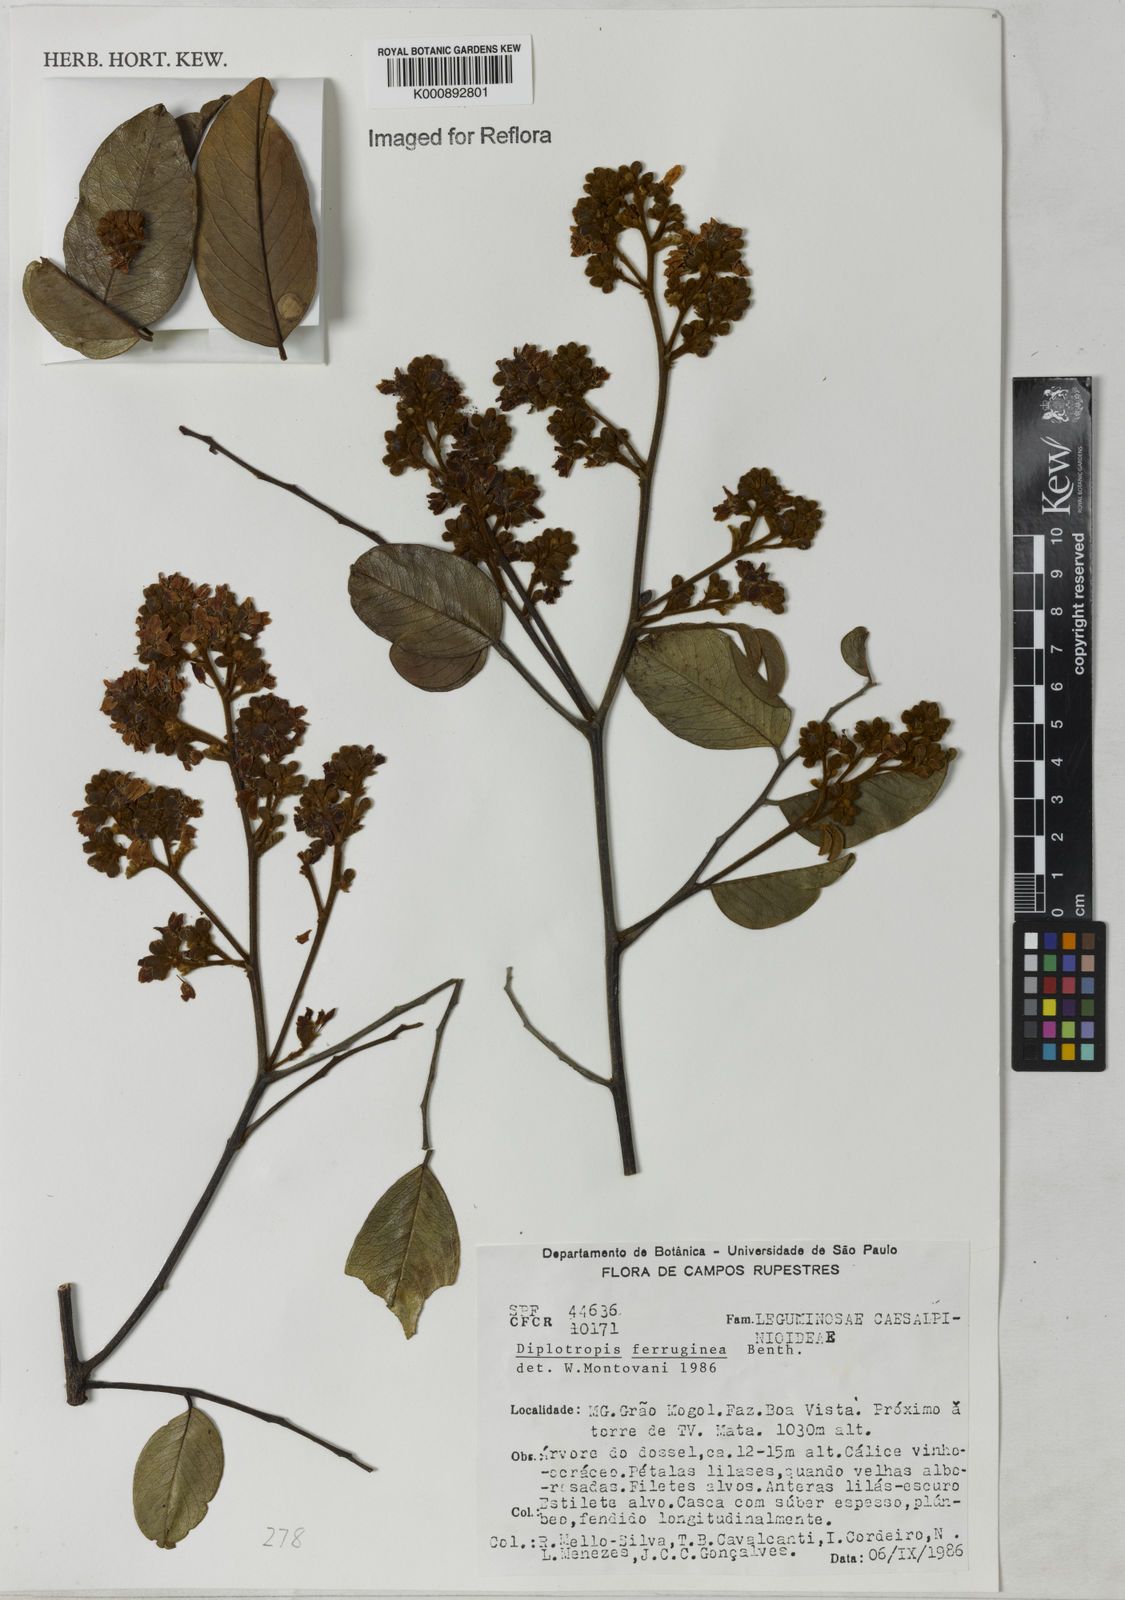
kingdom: Plantae
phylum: Tracheophyta
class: Magnoliopsida
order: Fabales
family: Fabaceae
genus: Diplotropis
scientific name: Diplotropis ferruginea
